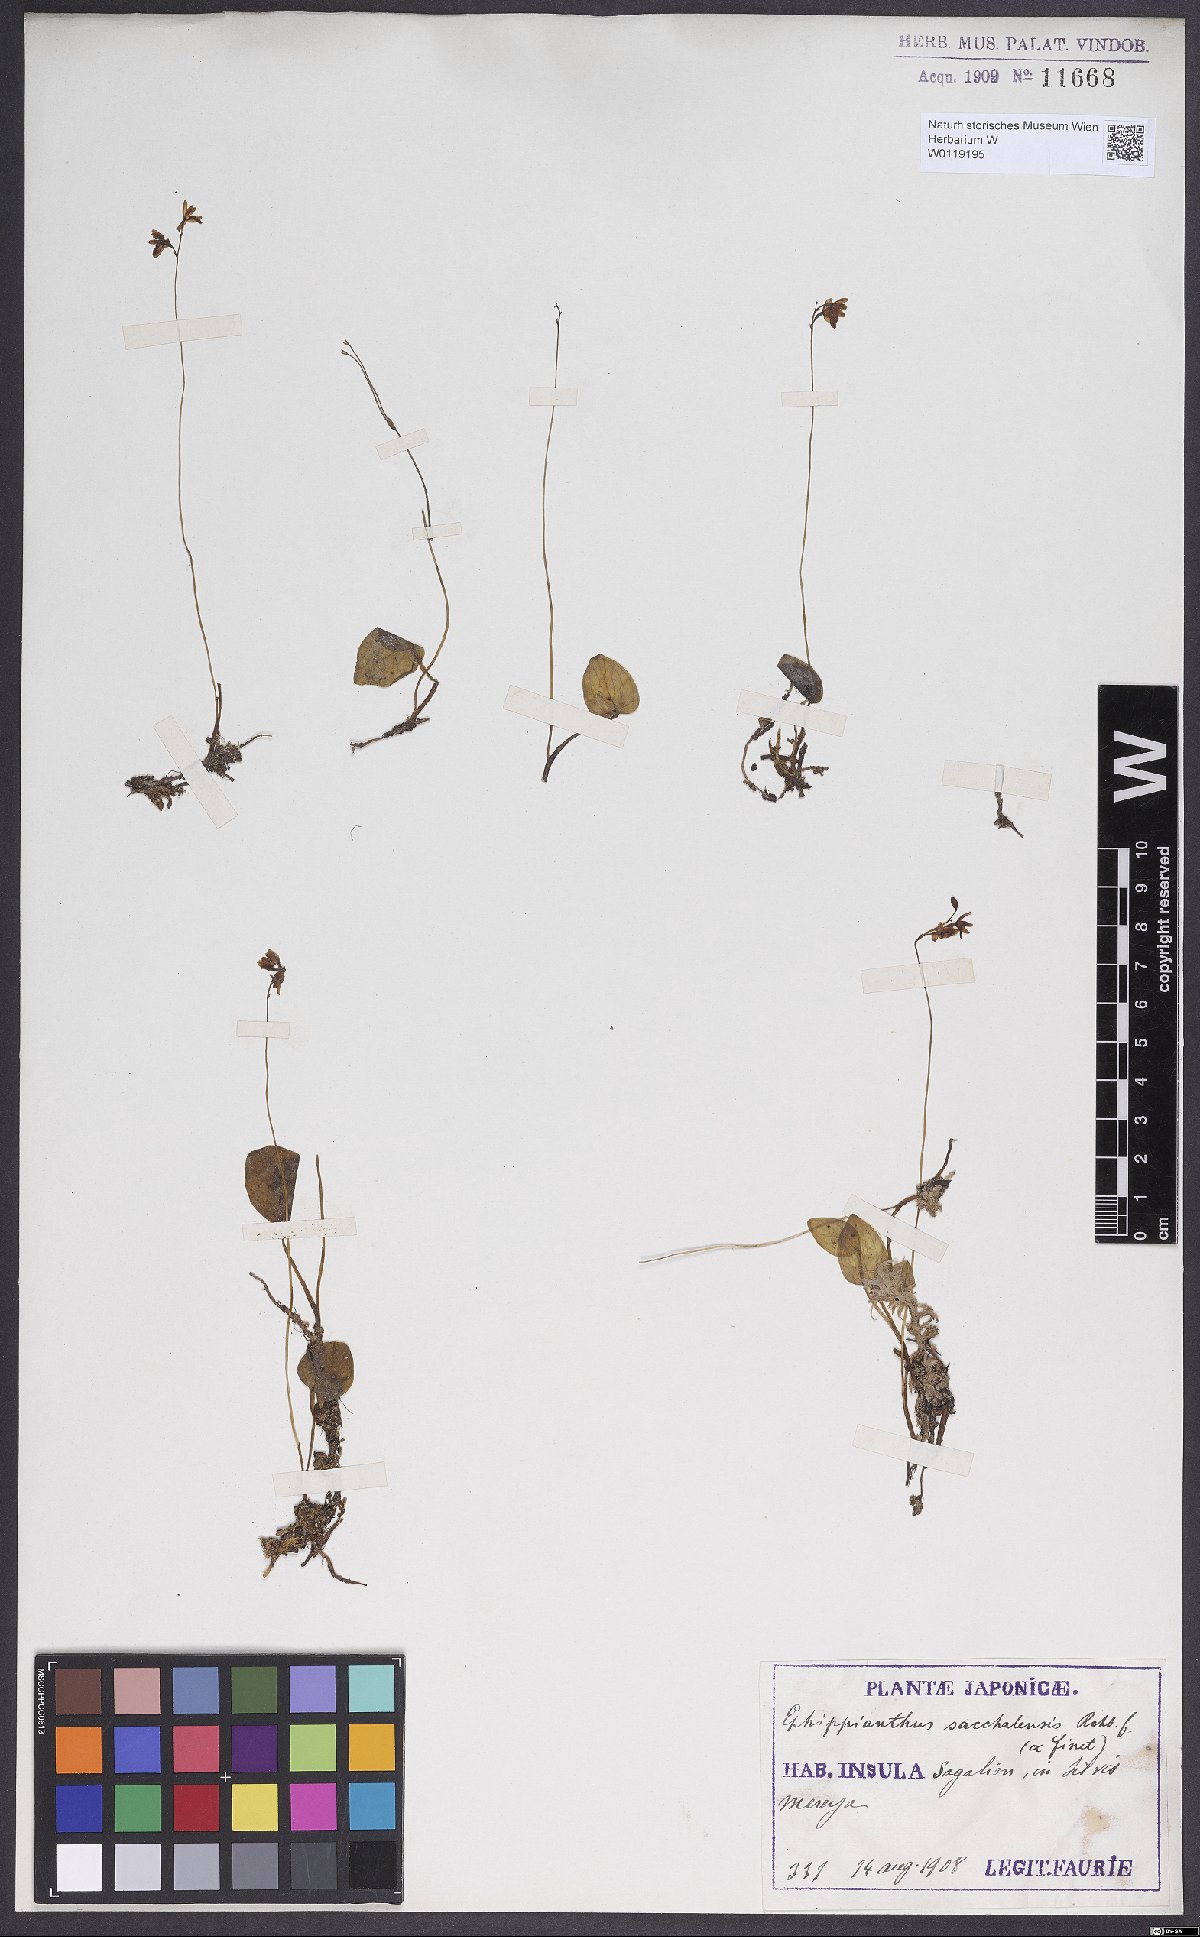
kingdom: Plantae
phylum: Tracheophyta
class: Liliopsida
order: Asparagales
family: Orchidaceae
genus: Ephippianthus
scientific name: Ephippianthus sachalinensis
